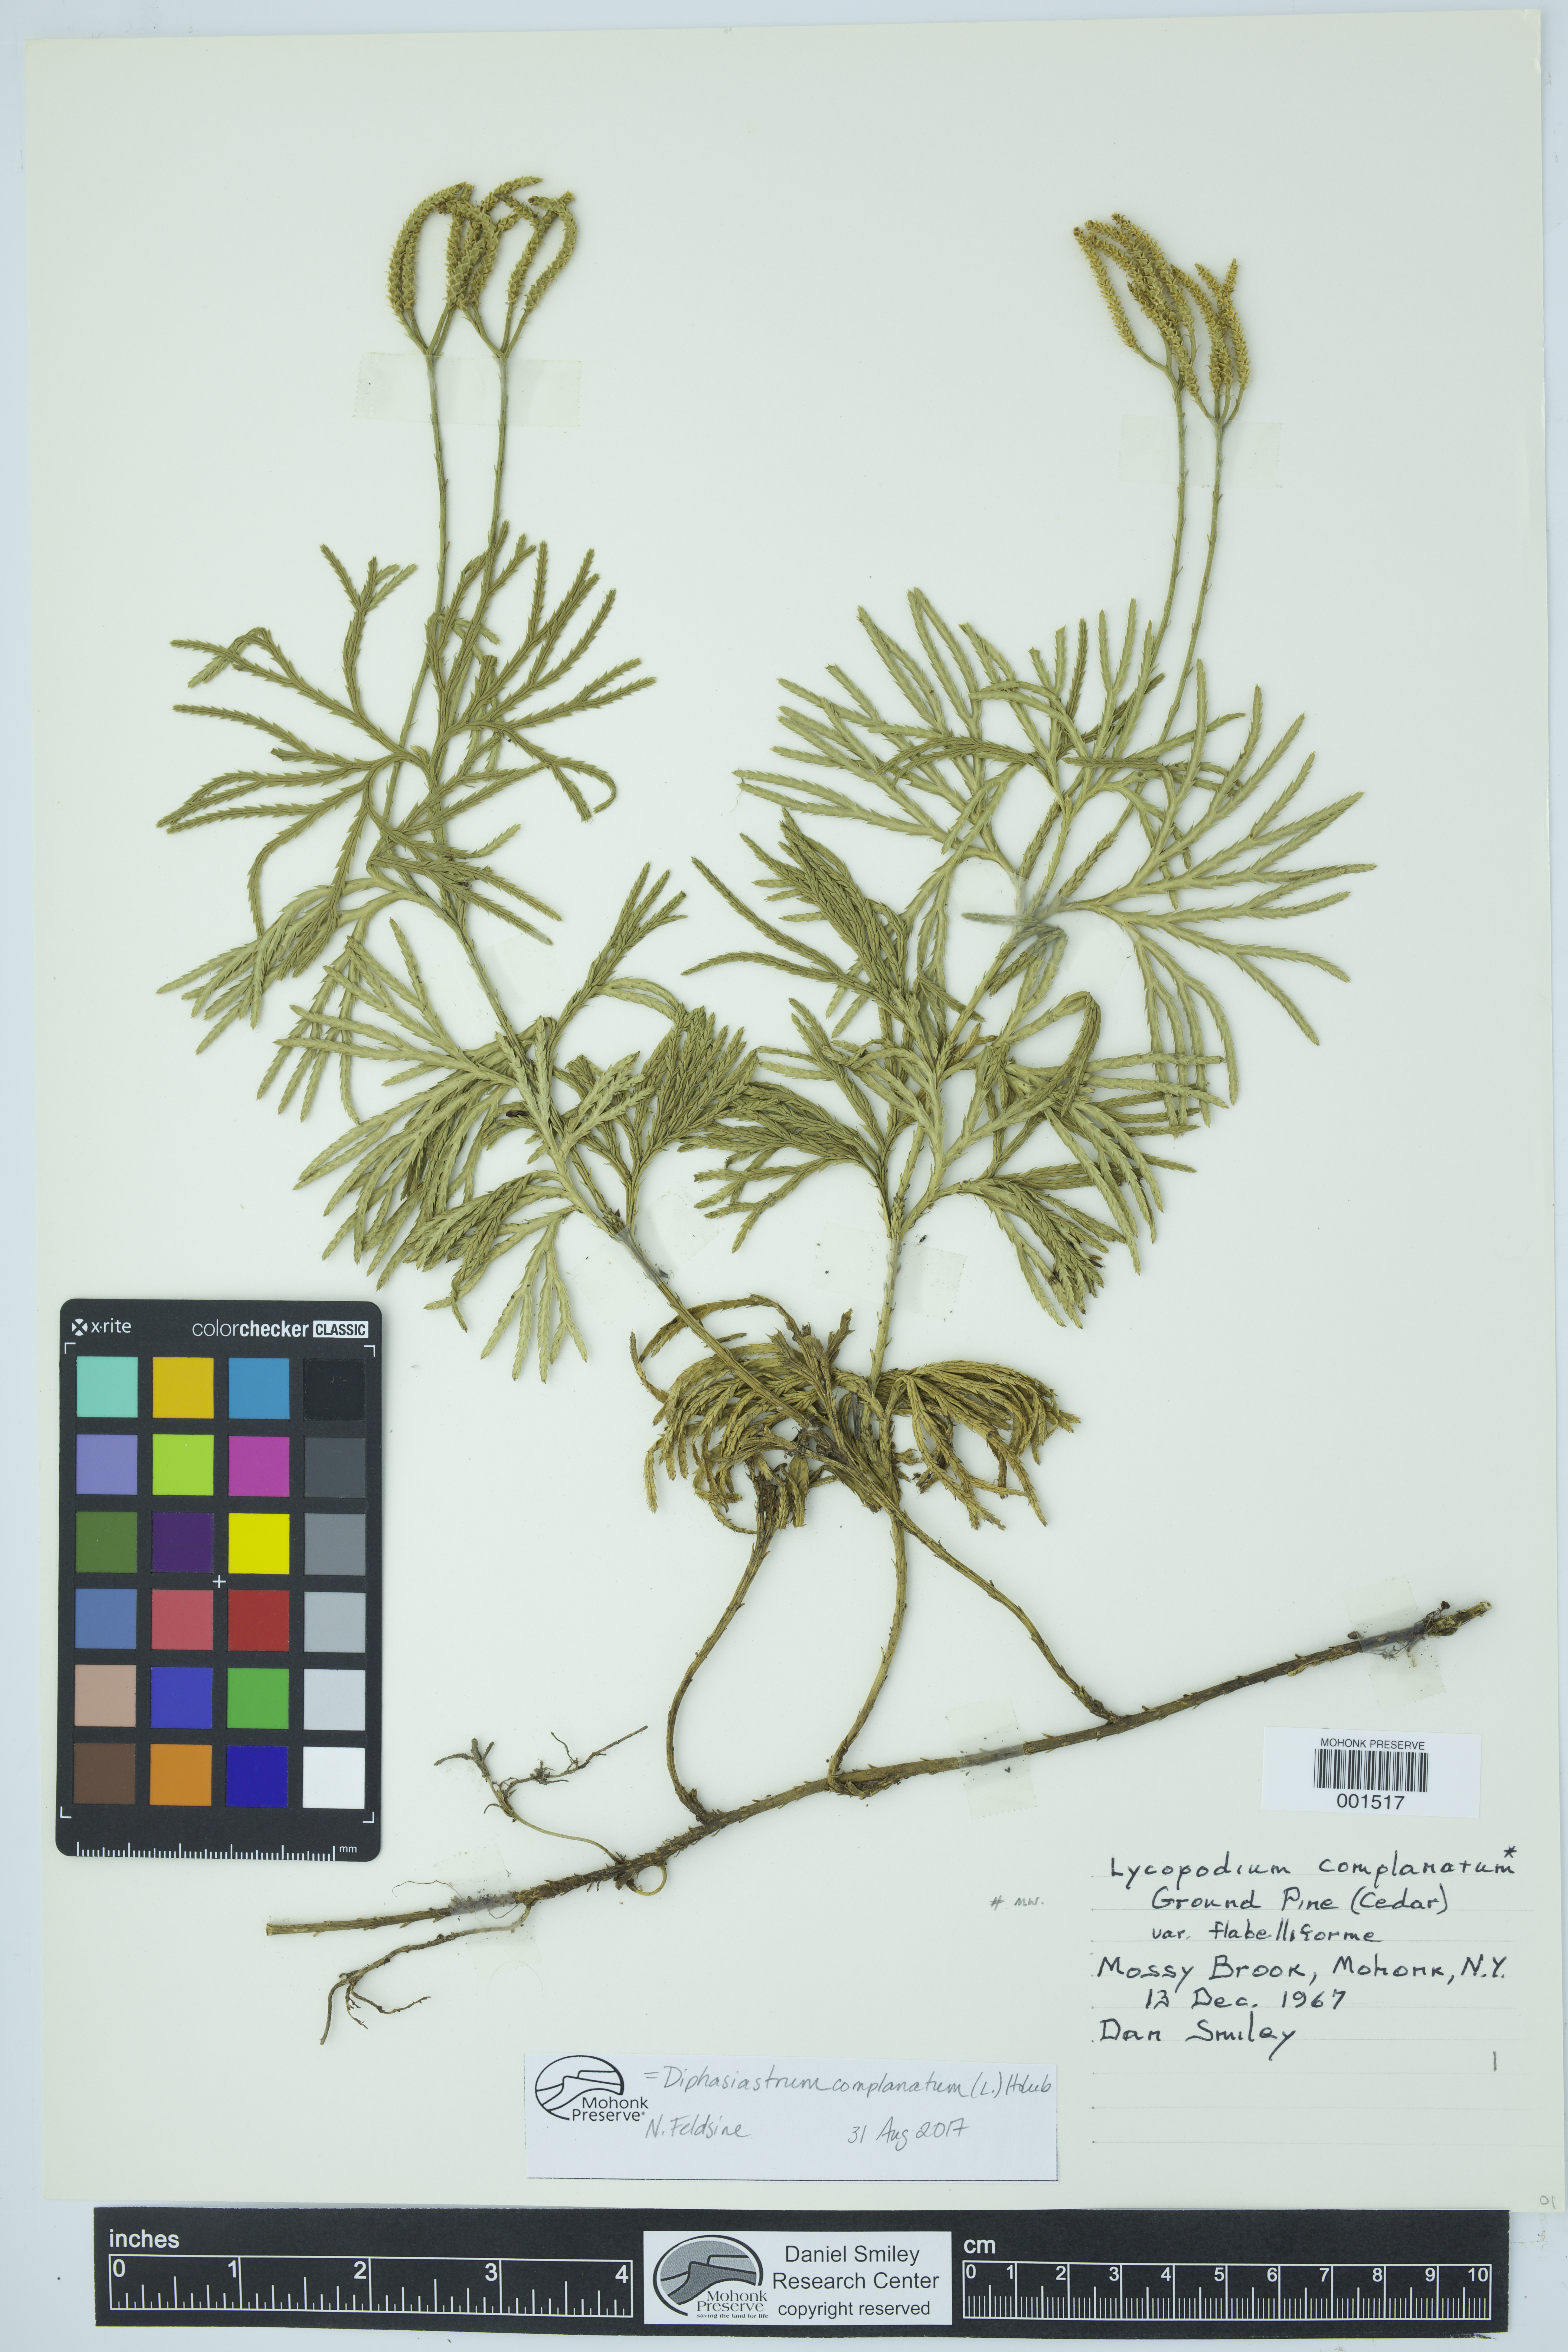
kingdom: Plantae
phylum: Tracheophyta
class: Lycopodiopsida
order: Lycopodiales
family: Lycopodiaceae
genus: Diphasiastrum
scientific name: Diphasiastrum complanatum
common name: Northern running-pine
